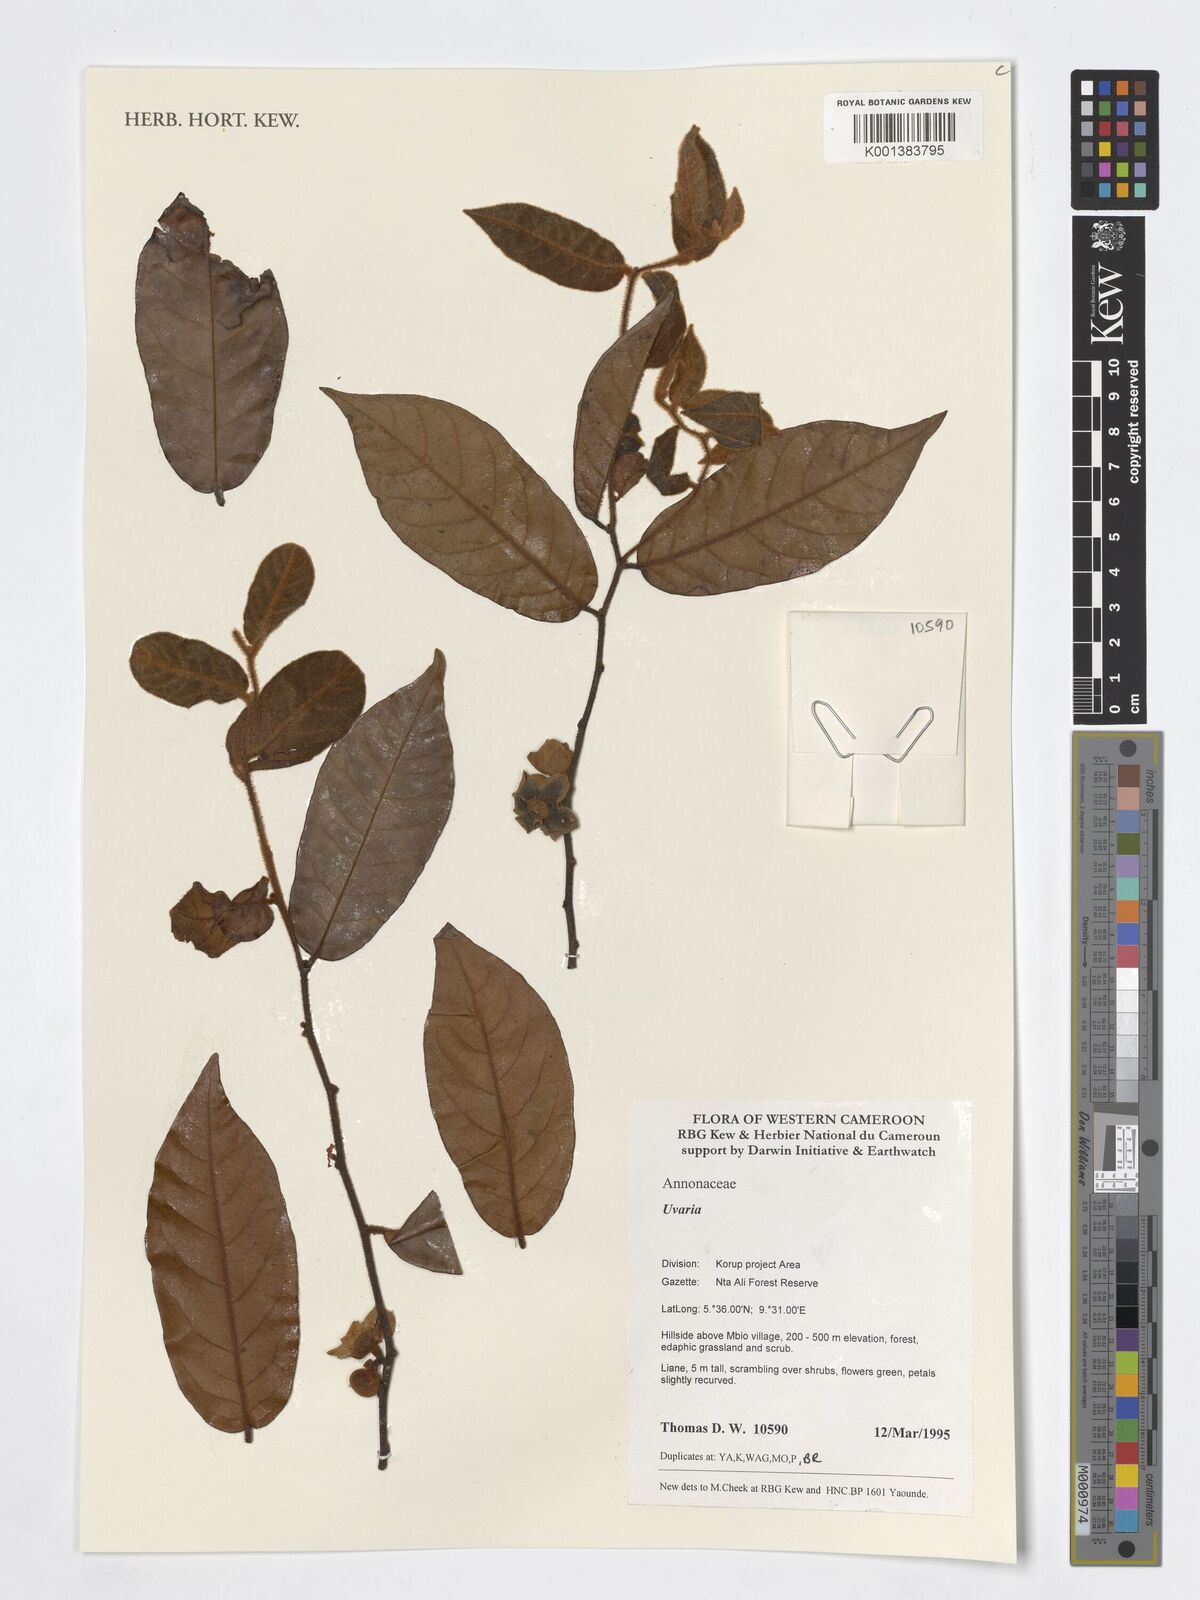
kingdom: Plantae
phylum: Tracheophyta
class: Magnoliopsida
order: Magnoliales
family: Annonaceae
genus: Uvaria
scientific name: Uvaria
